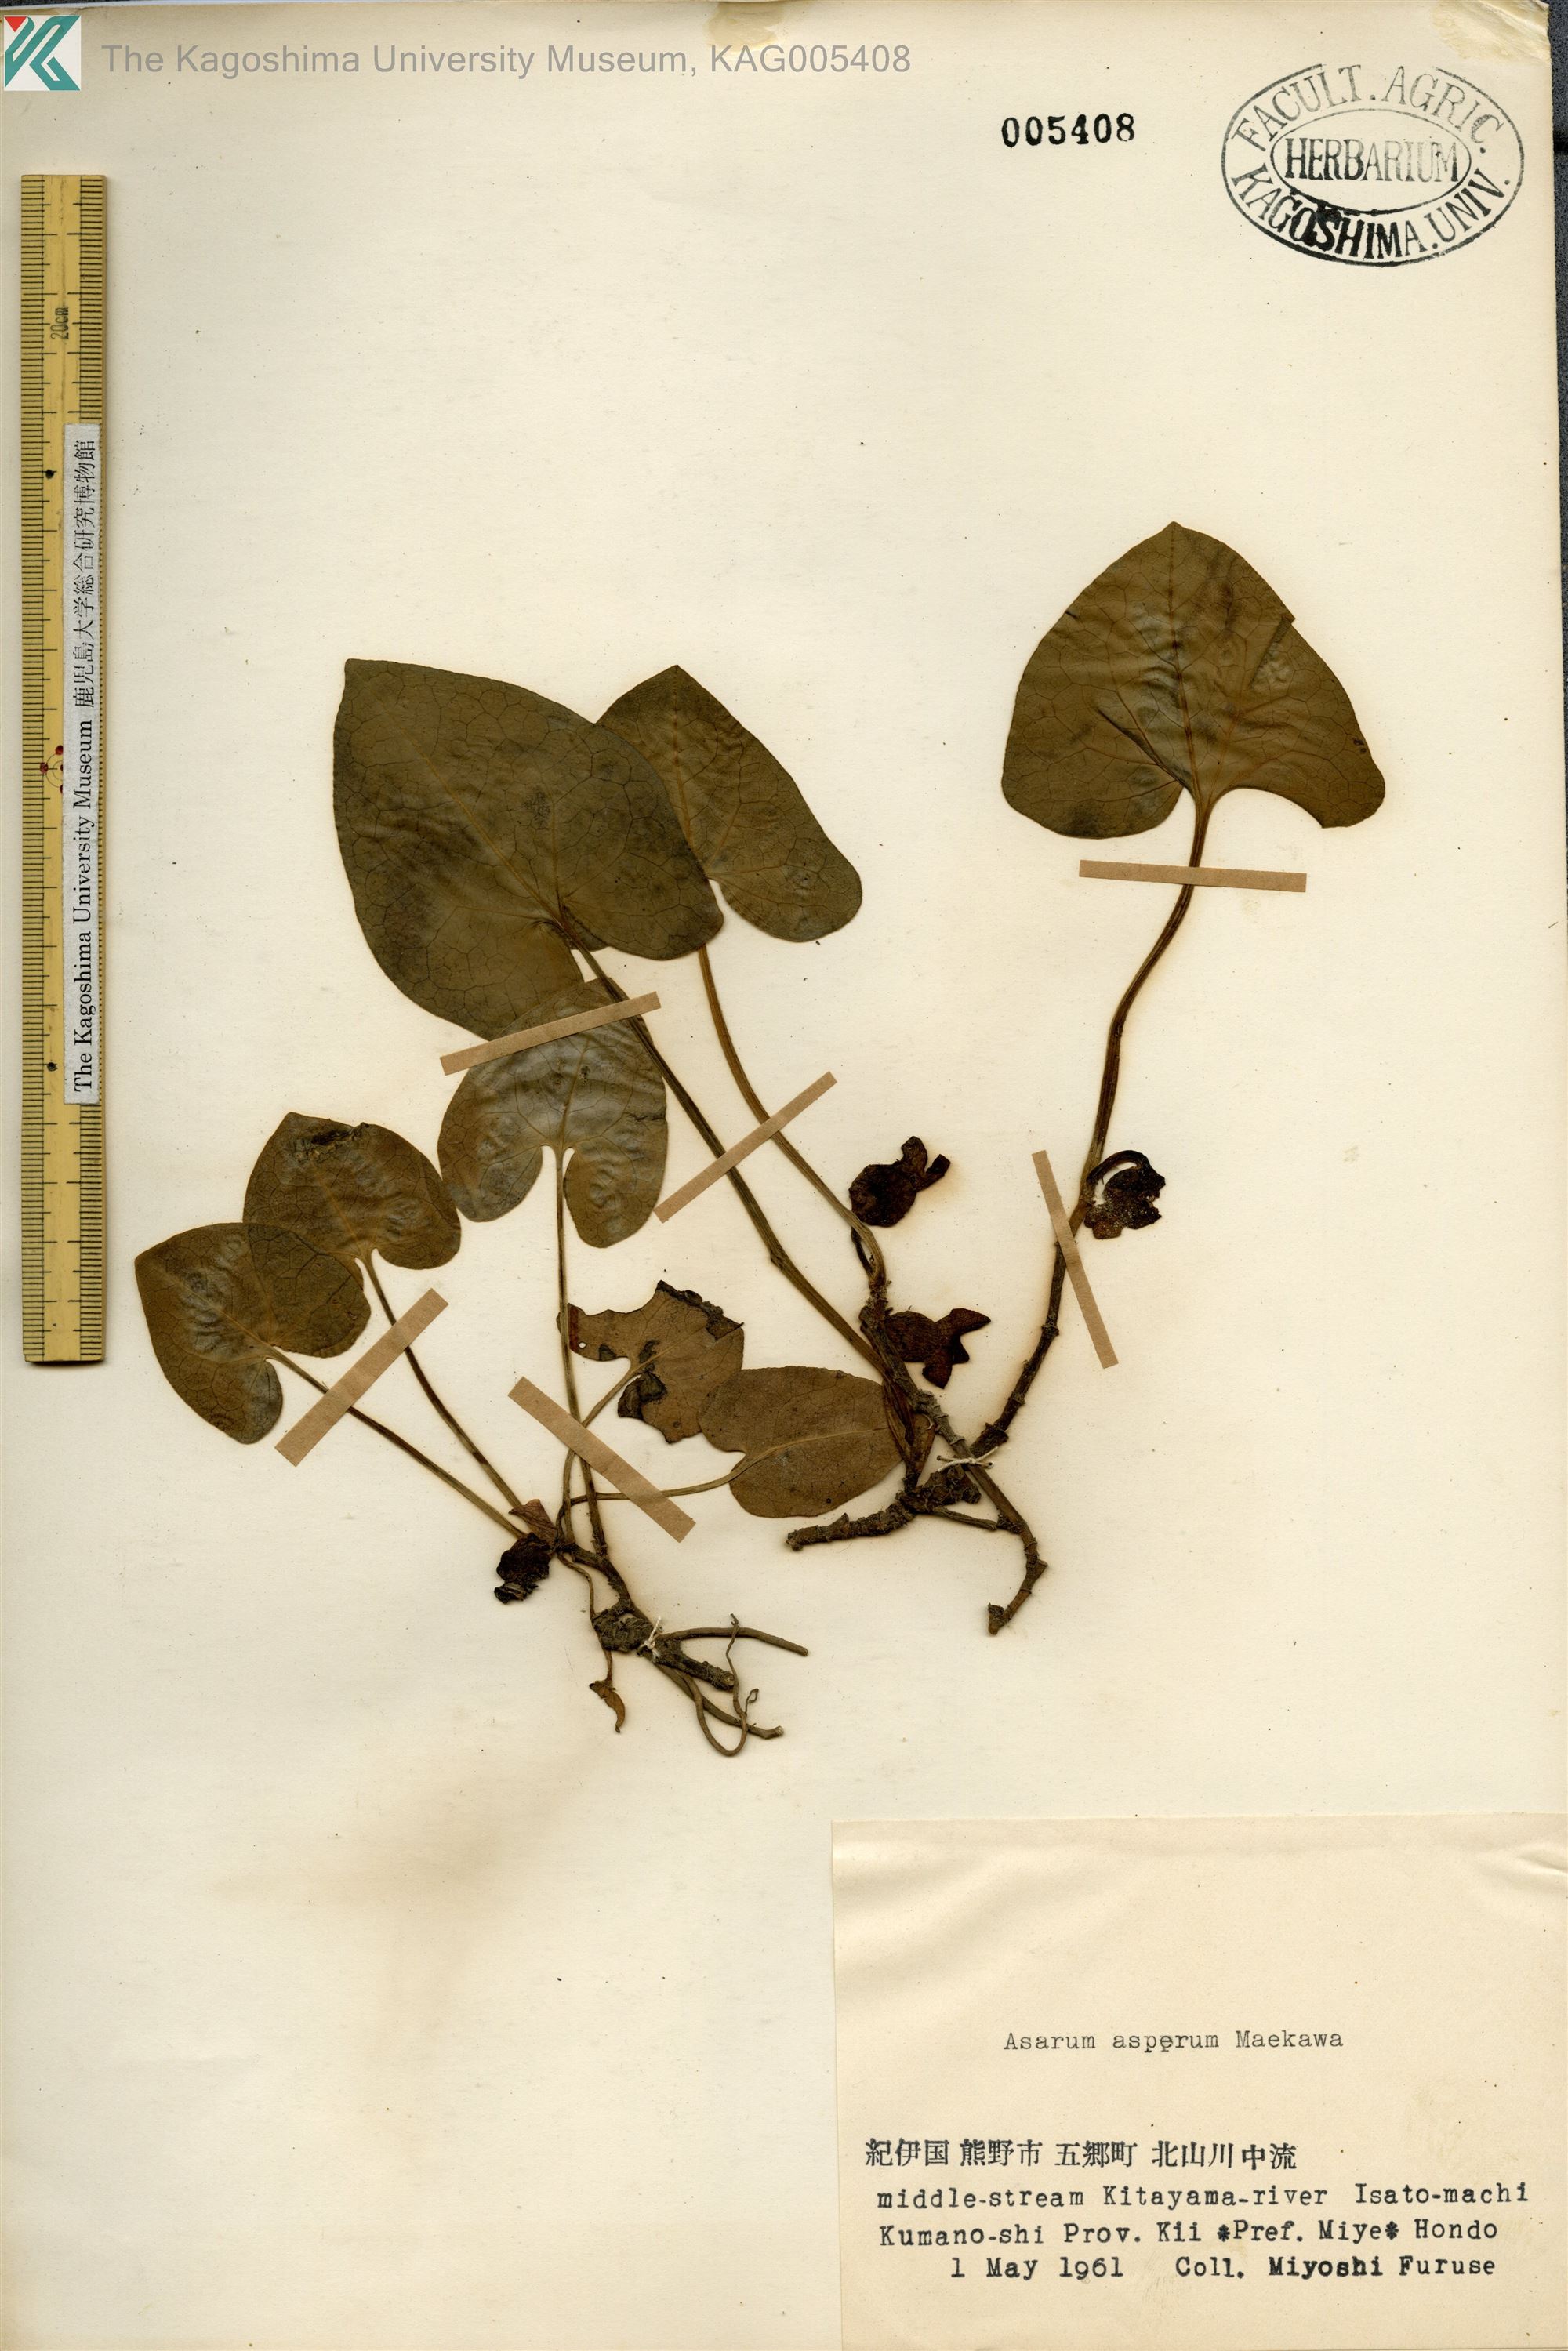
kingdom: Plantae
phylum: Tracheophyta
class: Magnoliopsida
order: Piperales
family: Aristolochiaceae
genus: Asarum
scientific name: Asarum asperum
